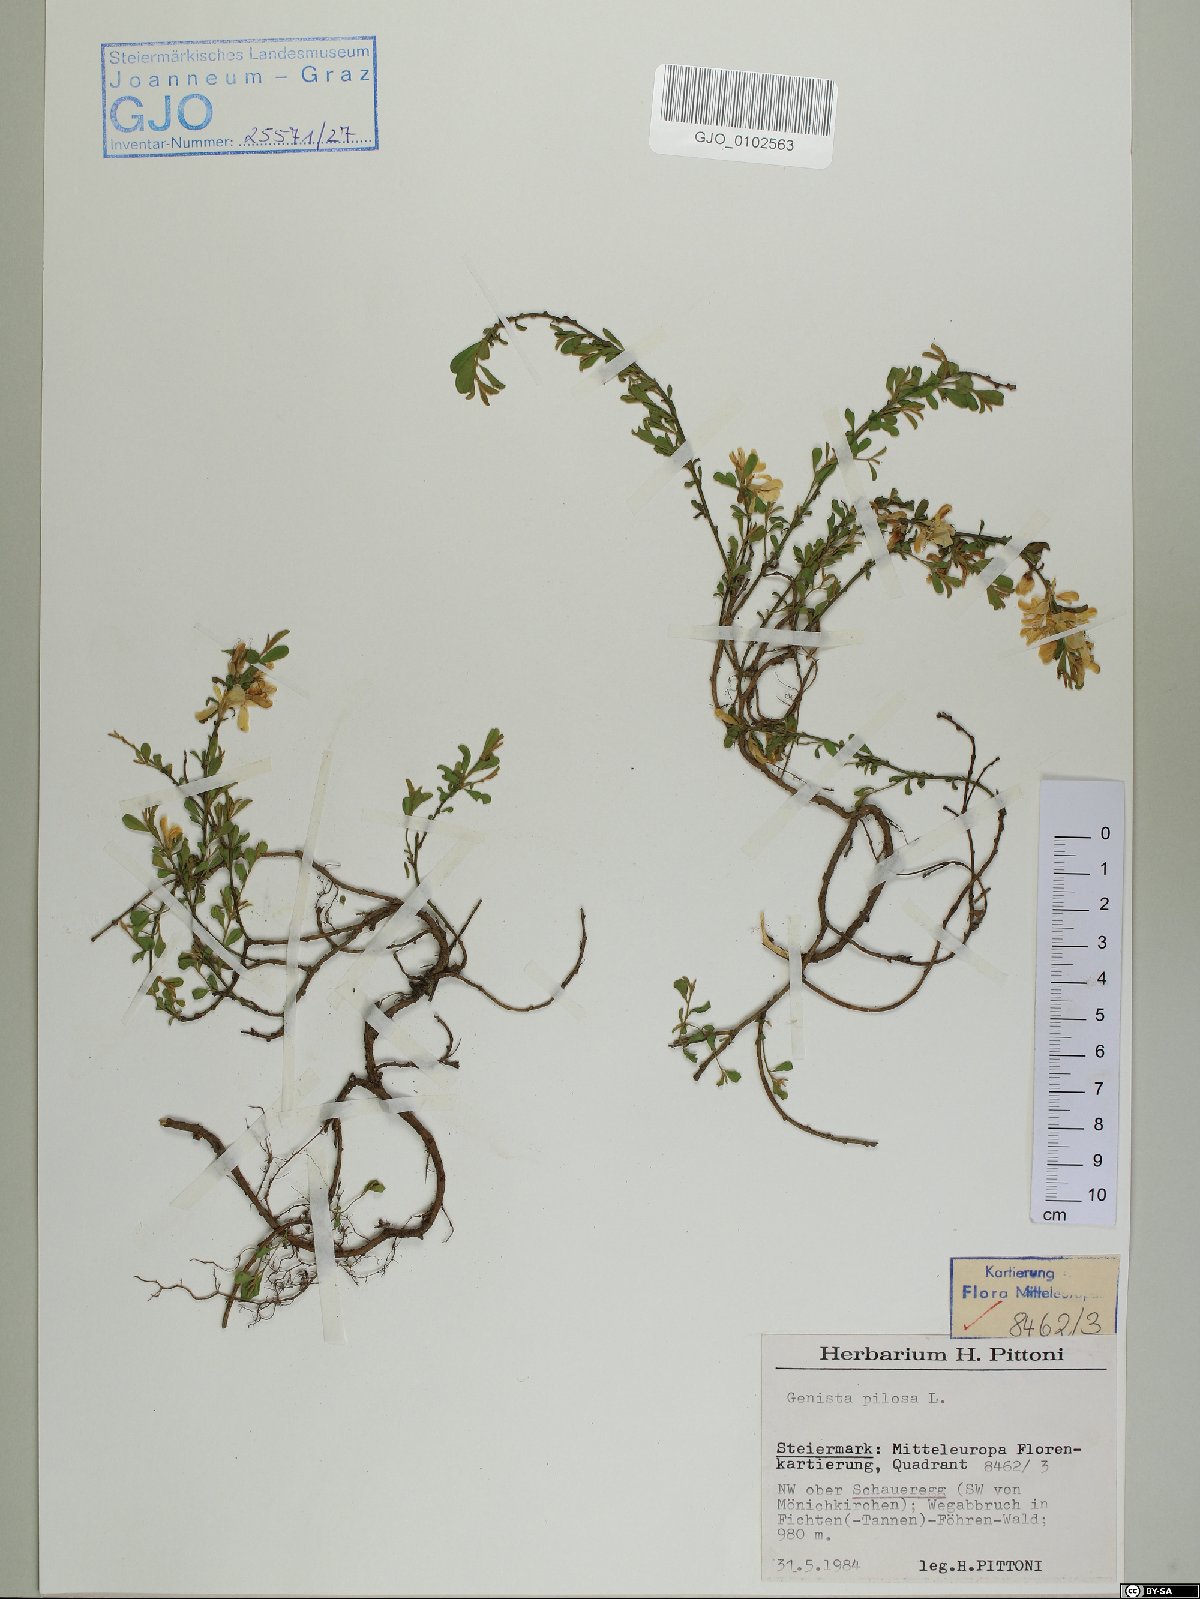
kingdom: Plantae
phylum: Tracheophyta
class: Magnoliopsida
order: Fabales
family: Fabaceae
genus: Genista
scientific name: Genista pilosa
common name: Hairy greenweed
